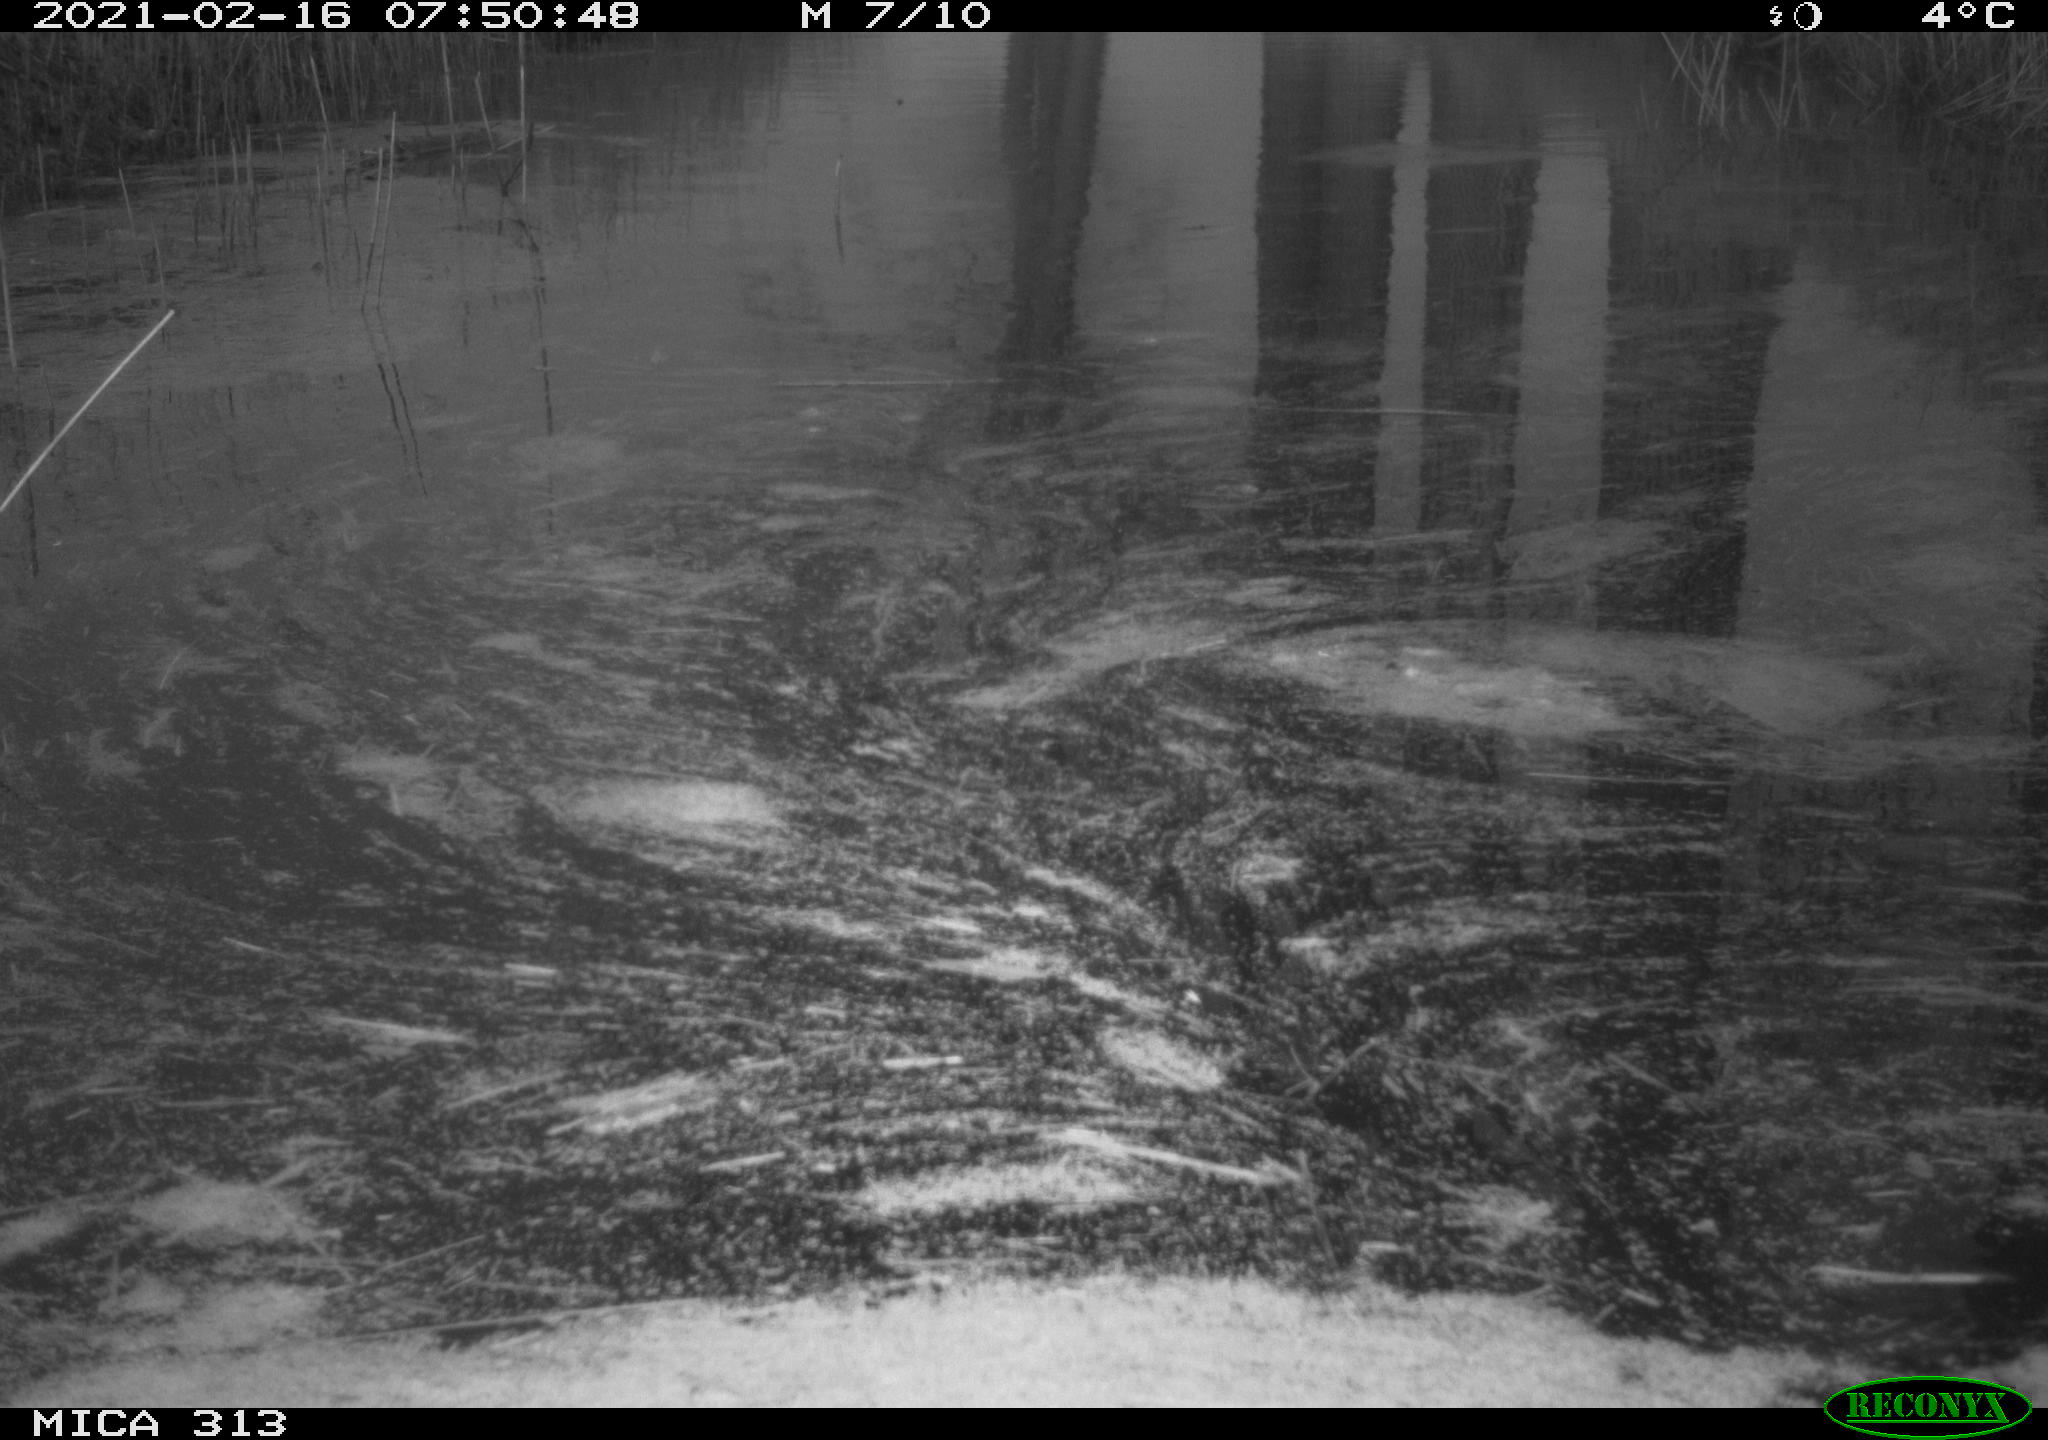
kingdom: Animalia
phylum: Chordata
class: Aves
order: Gruiformes
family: Rallidae
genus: Gallinula
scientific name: Gallinula chloropus
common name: Common moorhen
